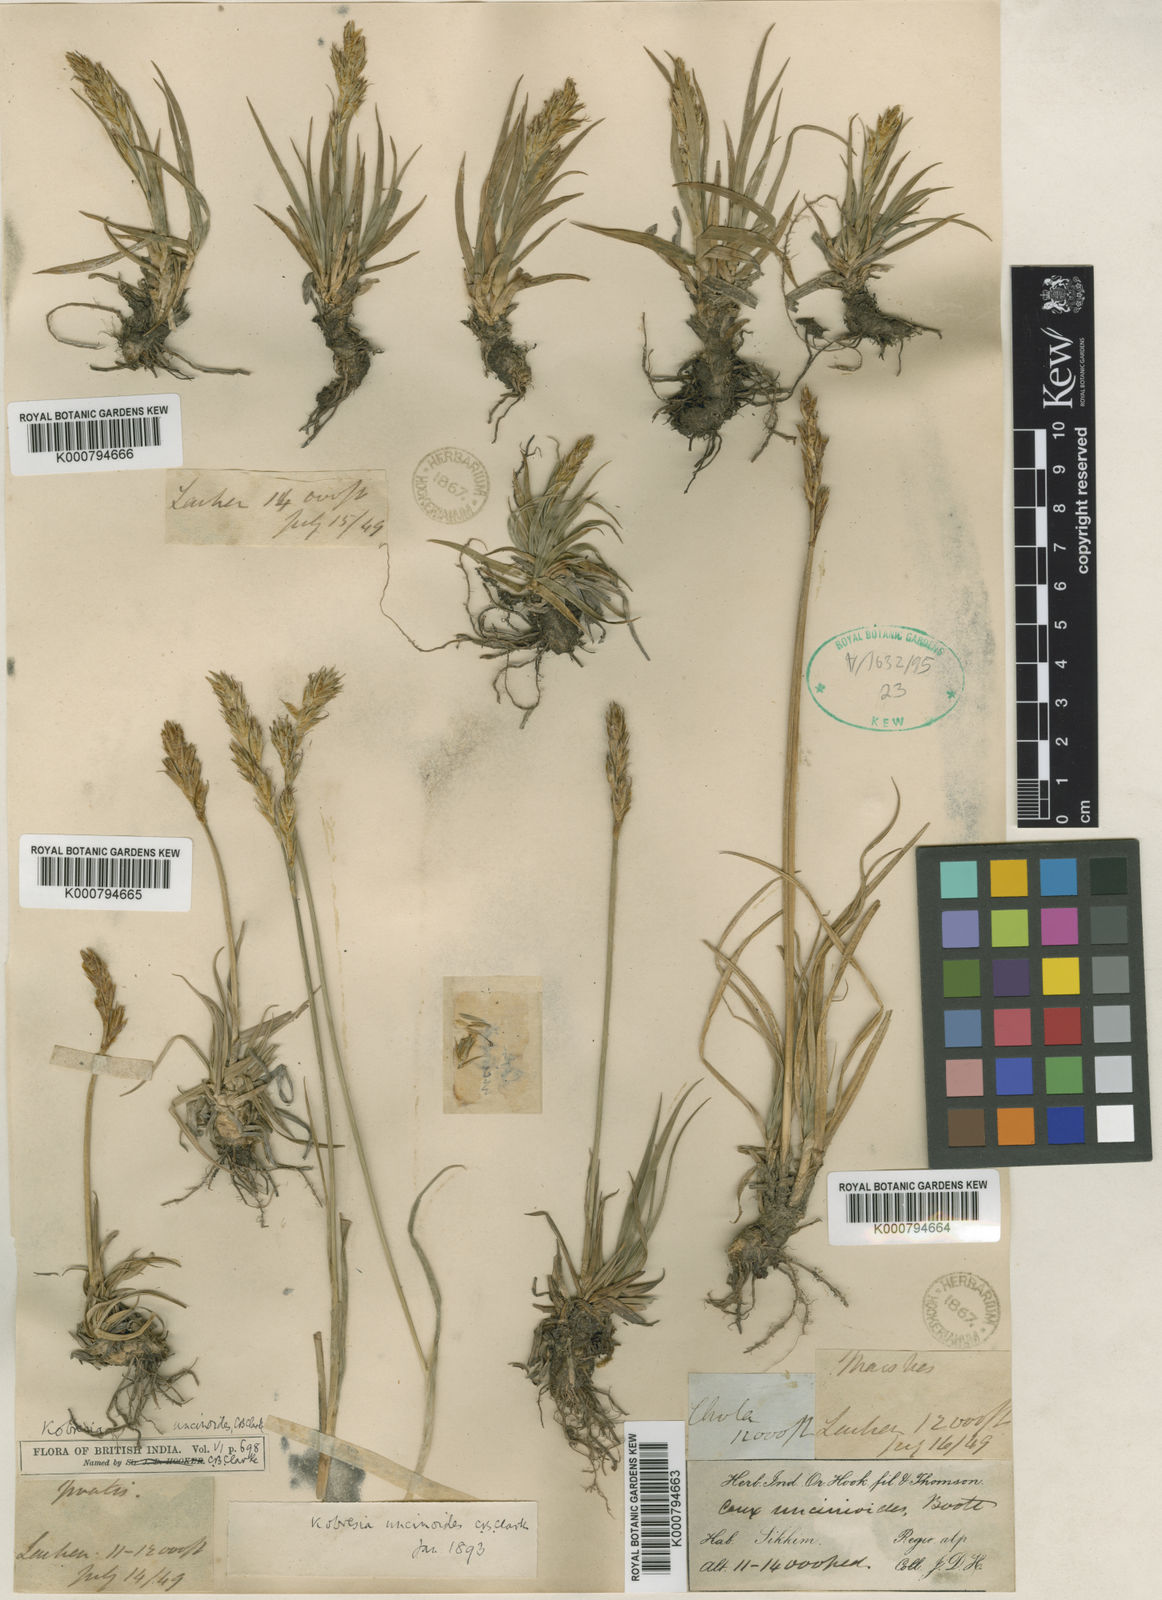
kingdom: Plantae
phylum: Tracheophyta
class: Liliopsida
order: Poales
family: Cyperaceae
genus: Carex
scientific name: Carex uncinioides
